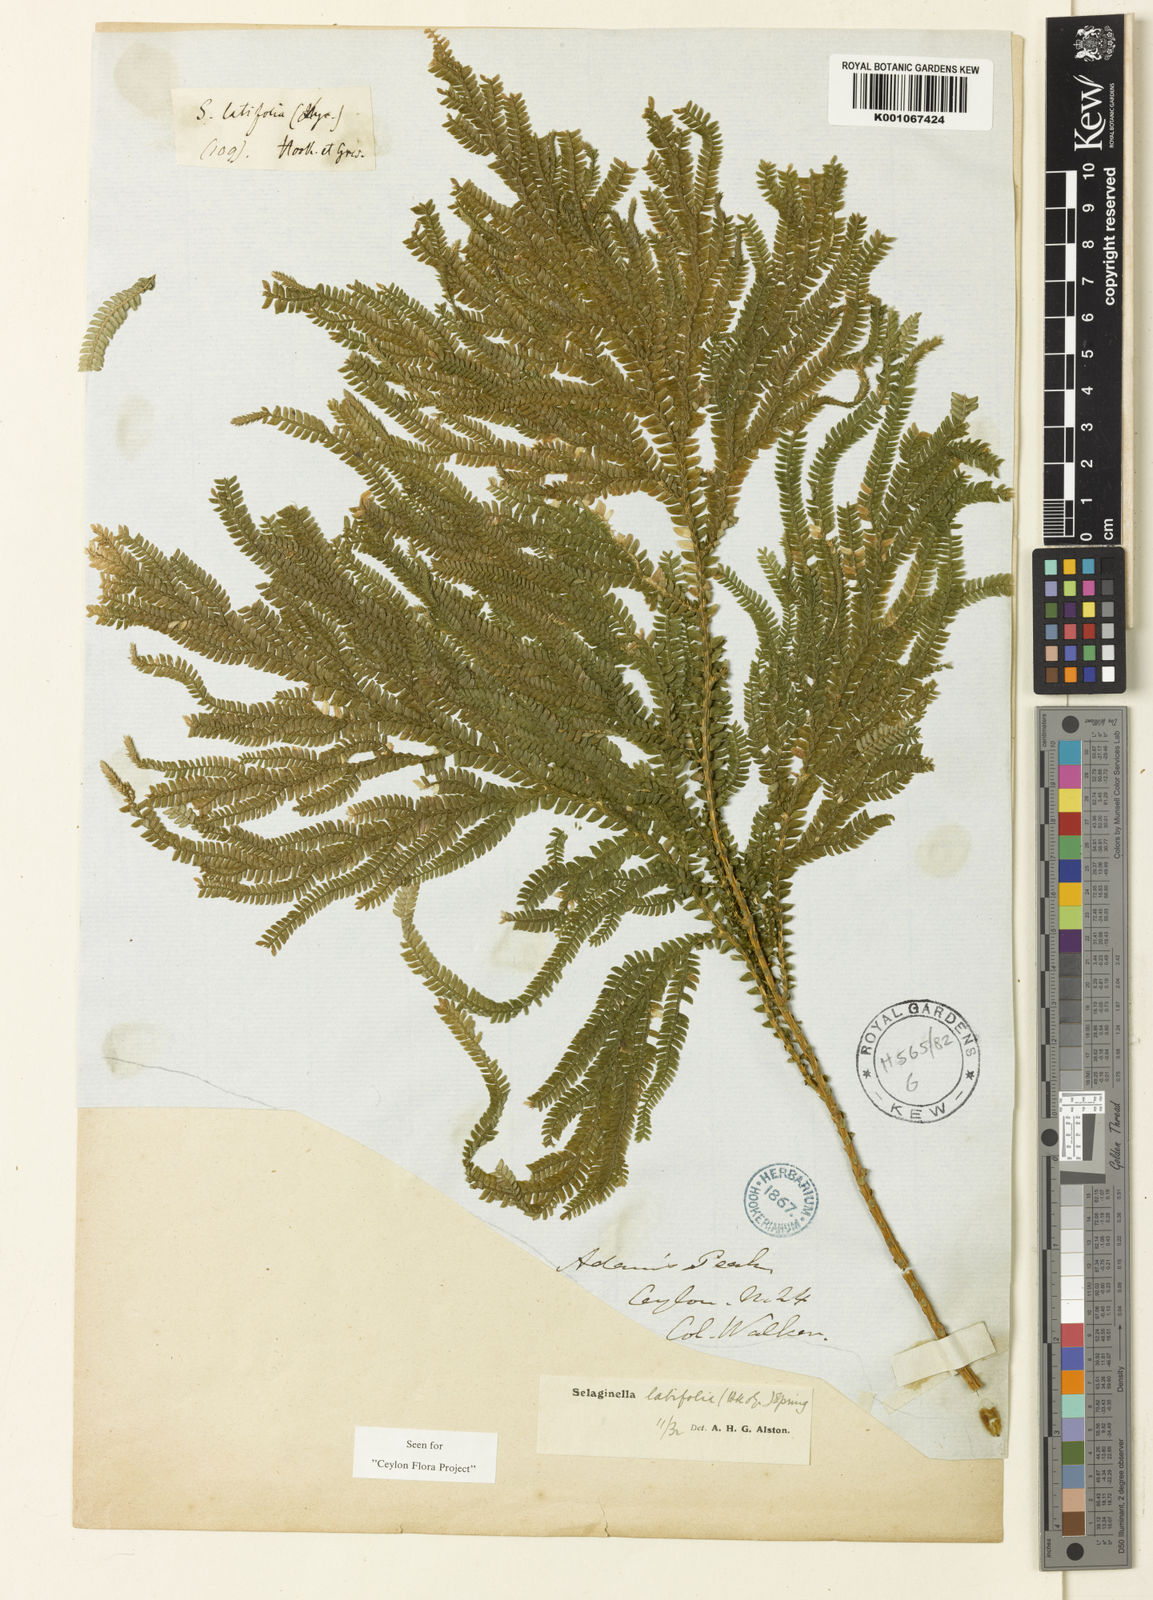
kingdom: Plantae
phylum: Tracheophyta
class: Lycopodiopsida
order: Selaginellales
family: Selaginellaceae
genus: Selaginella
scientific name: Selaginella latifolia
